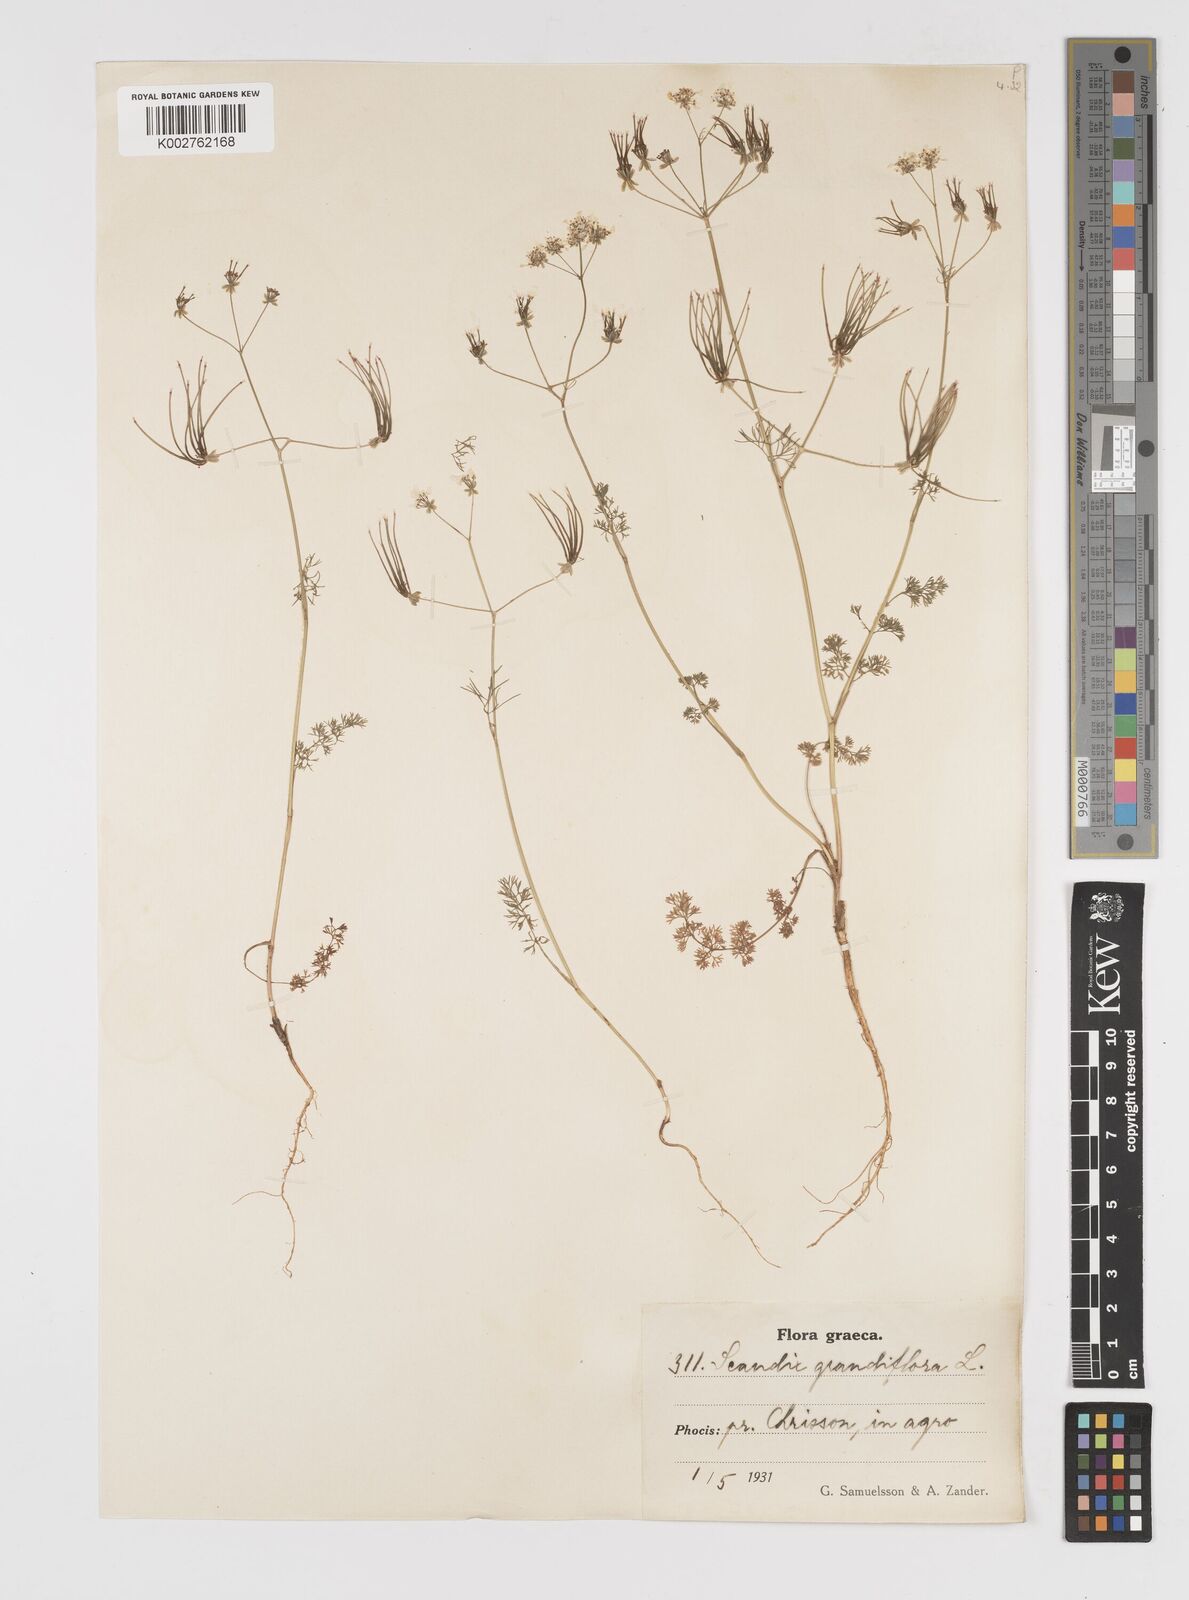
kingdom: Plantae
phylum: Tracheophyta
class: Magnoliopsida
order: Apiales
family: Apiaceae
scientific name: Apiaceae
